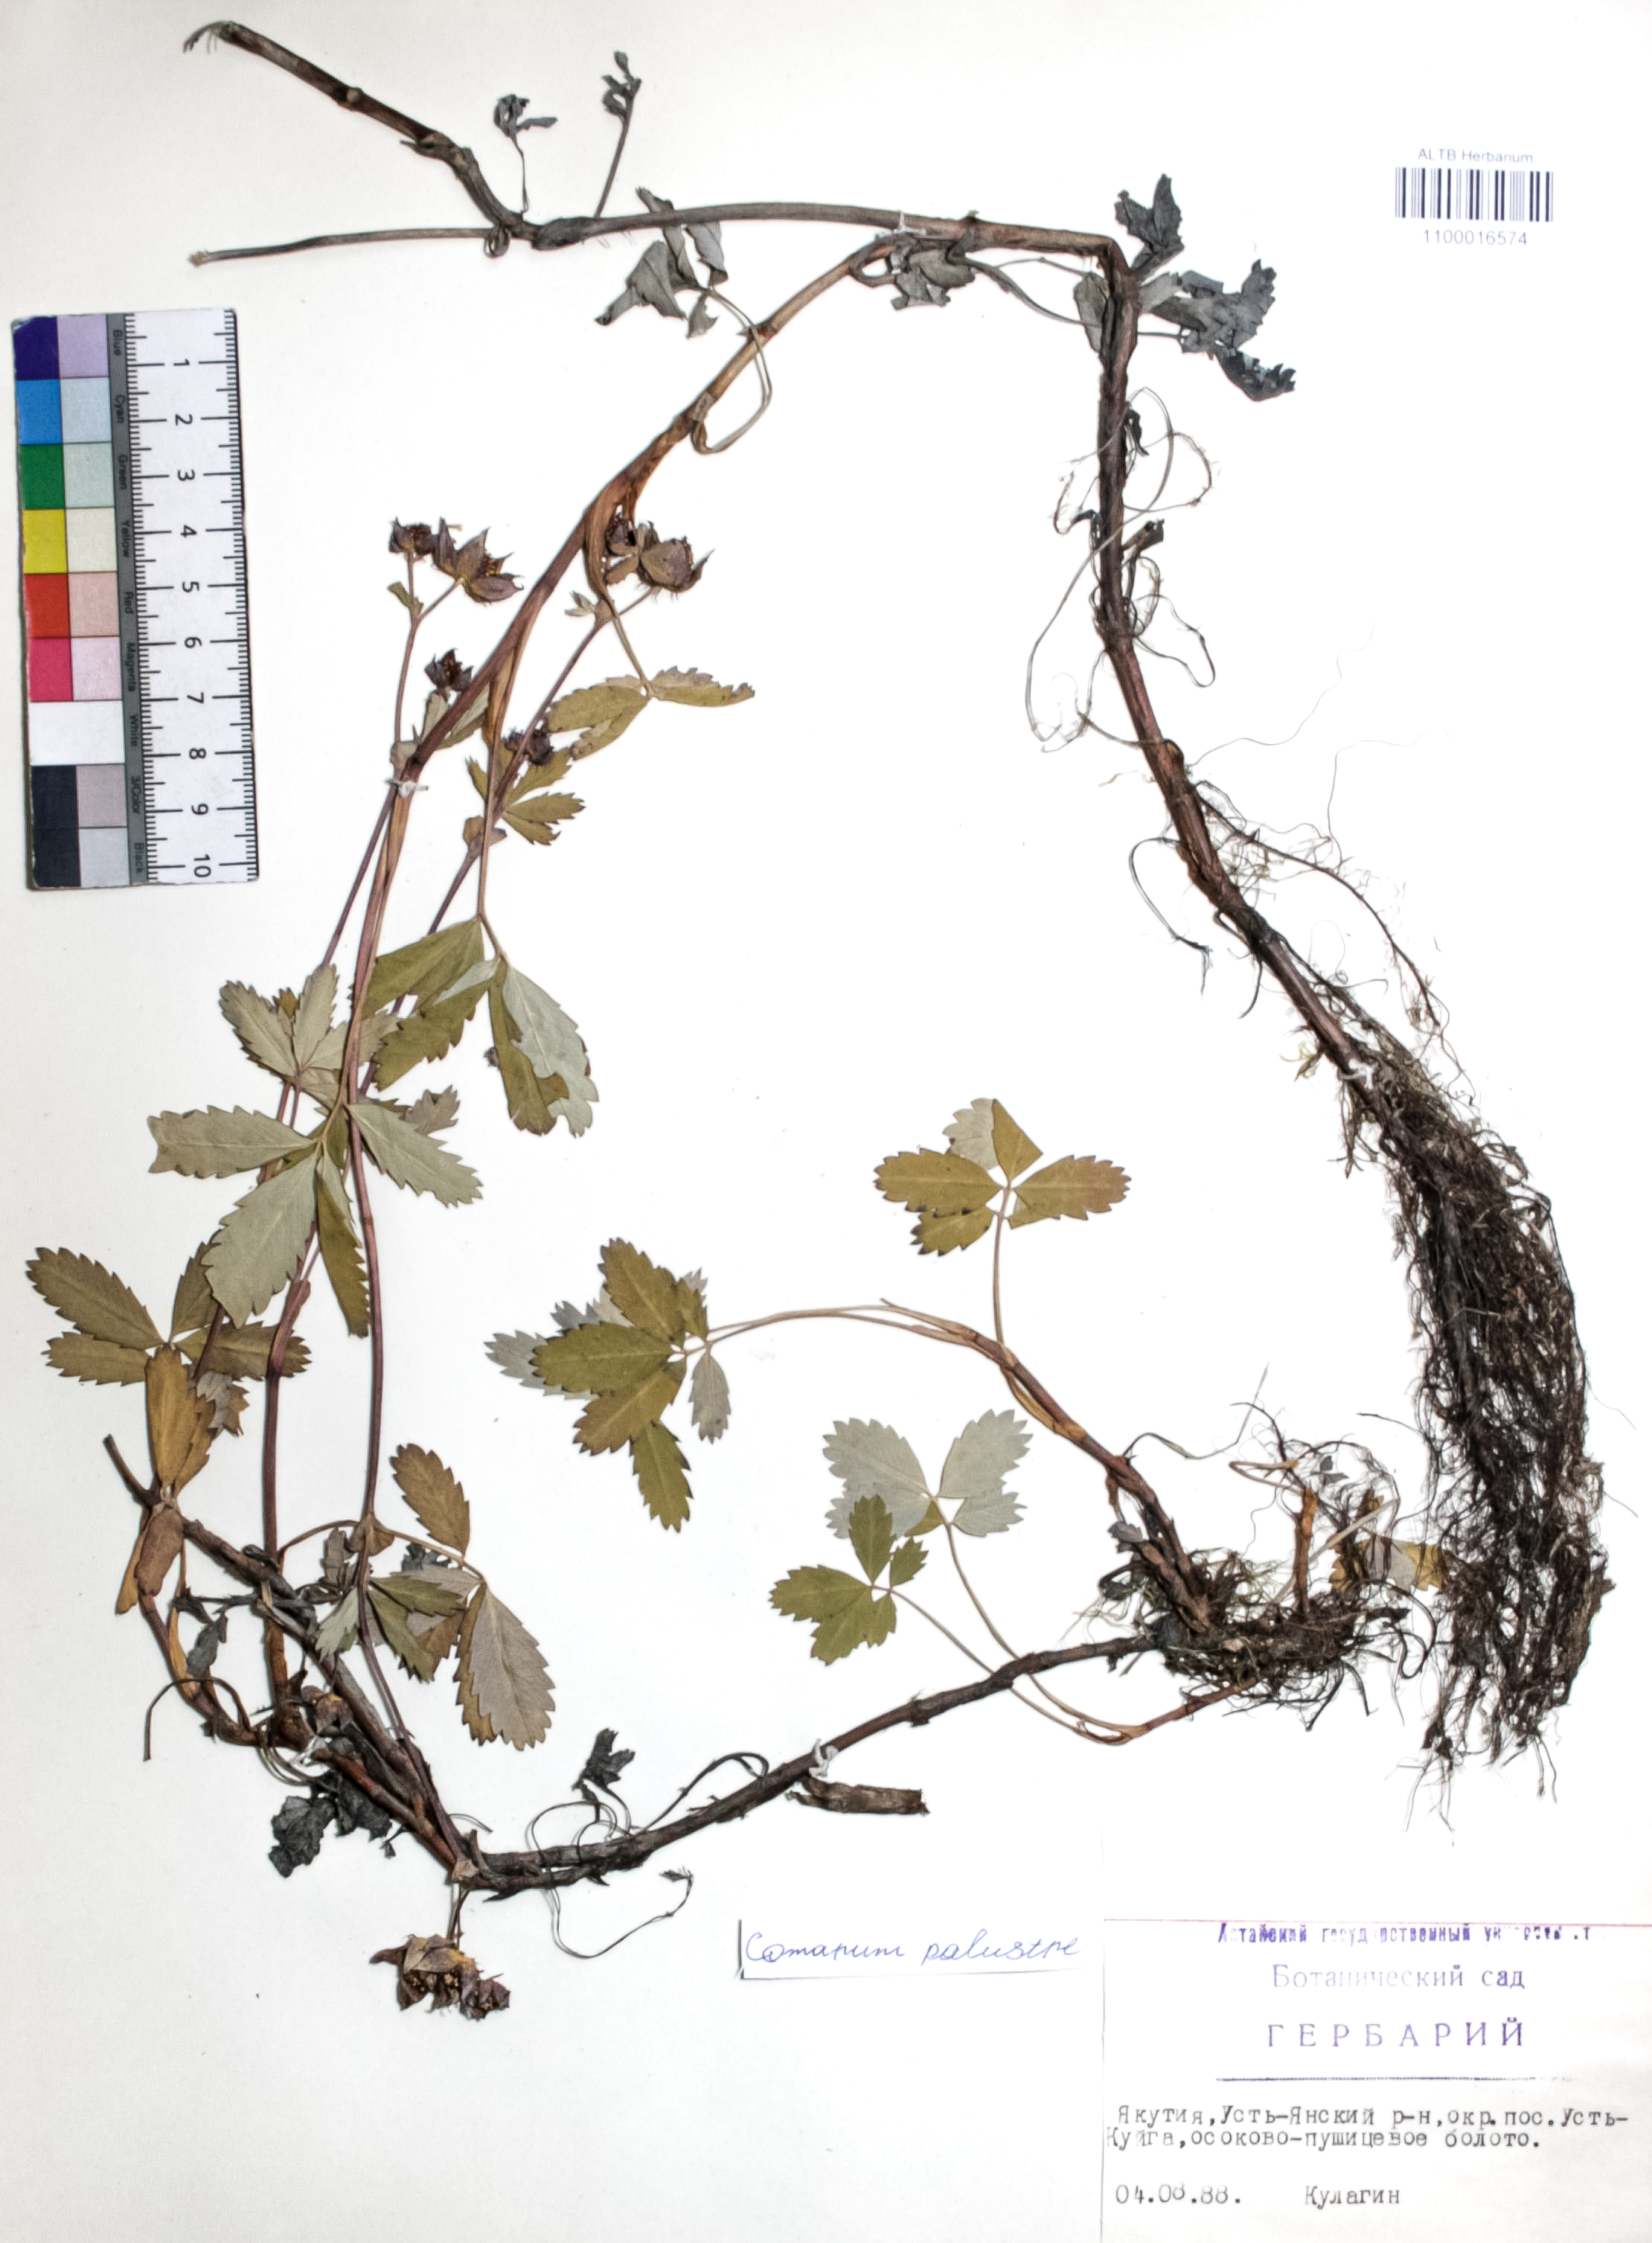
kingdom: Plantae
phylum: Tracheophyta
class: Magnoliopsida
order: Rosales
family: Rosaceae
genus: Comarum
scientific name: Comarum palustre
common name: Marsh cinquefoil
